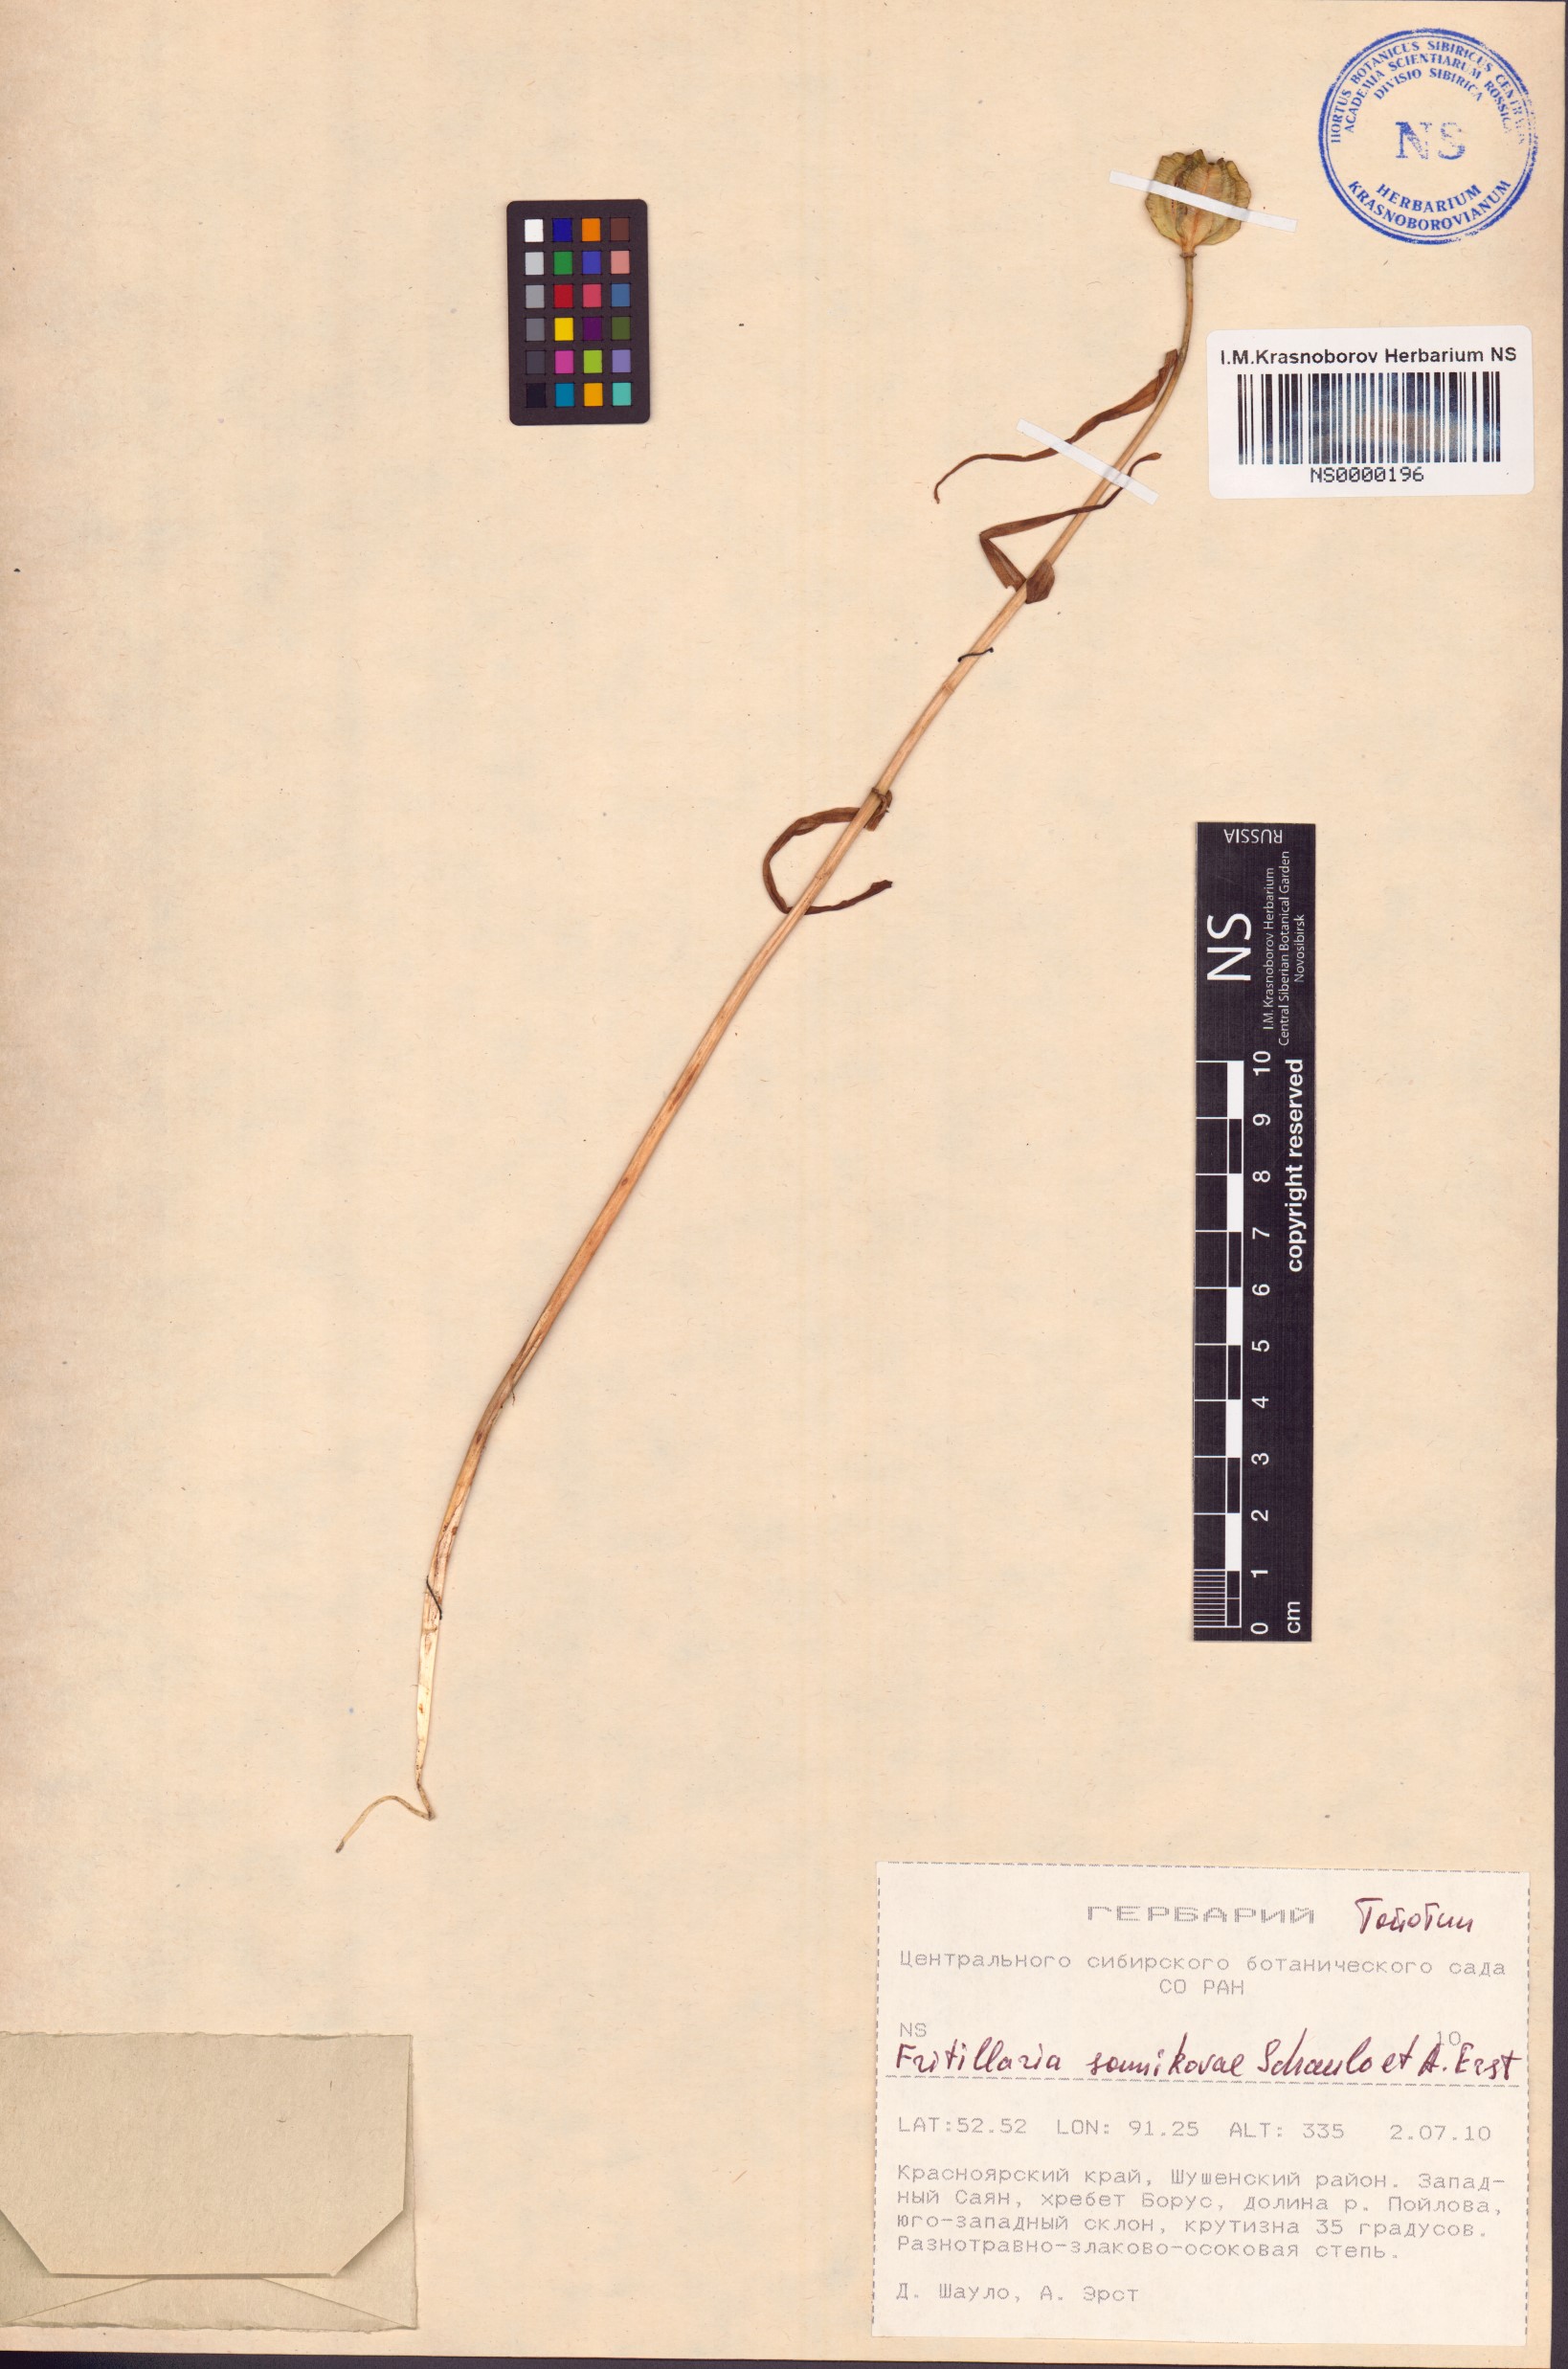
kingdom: Plantae
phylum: Tracheophyta
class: Liliopsida
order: Liliales
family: Liliaceae
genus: Fritillaria
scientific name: Fritillaria sonnikovae
